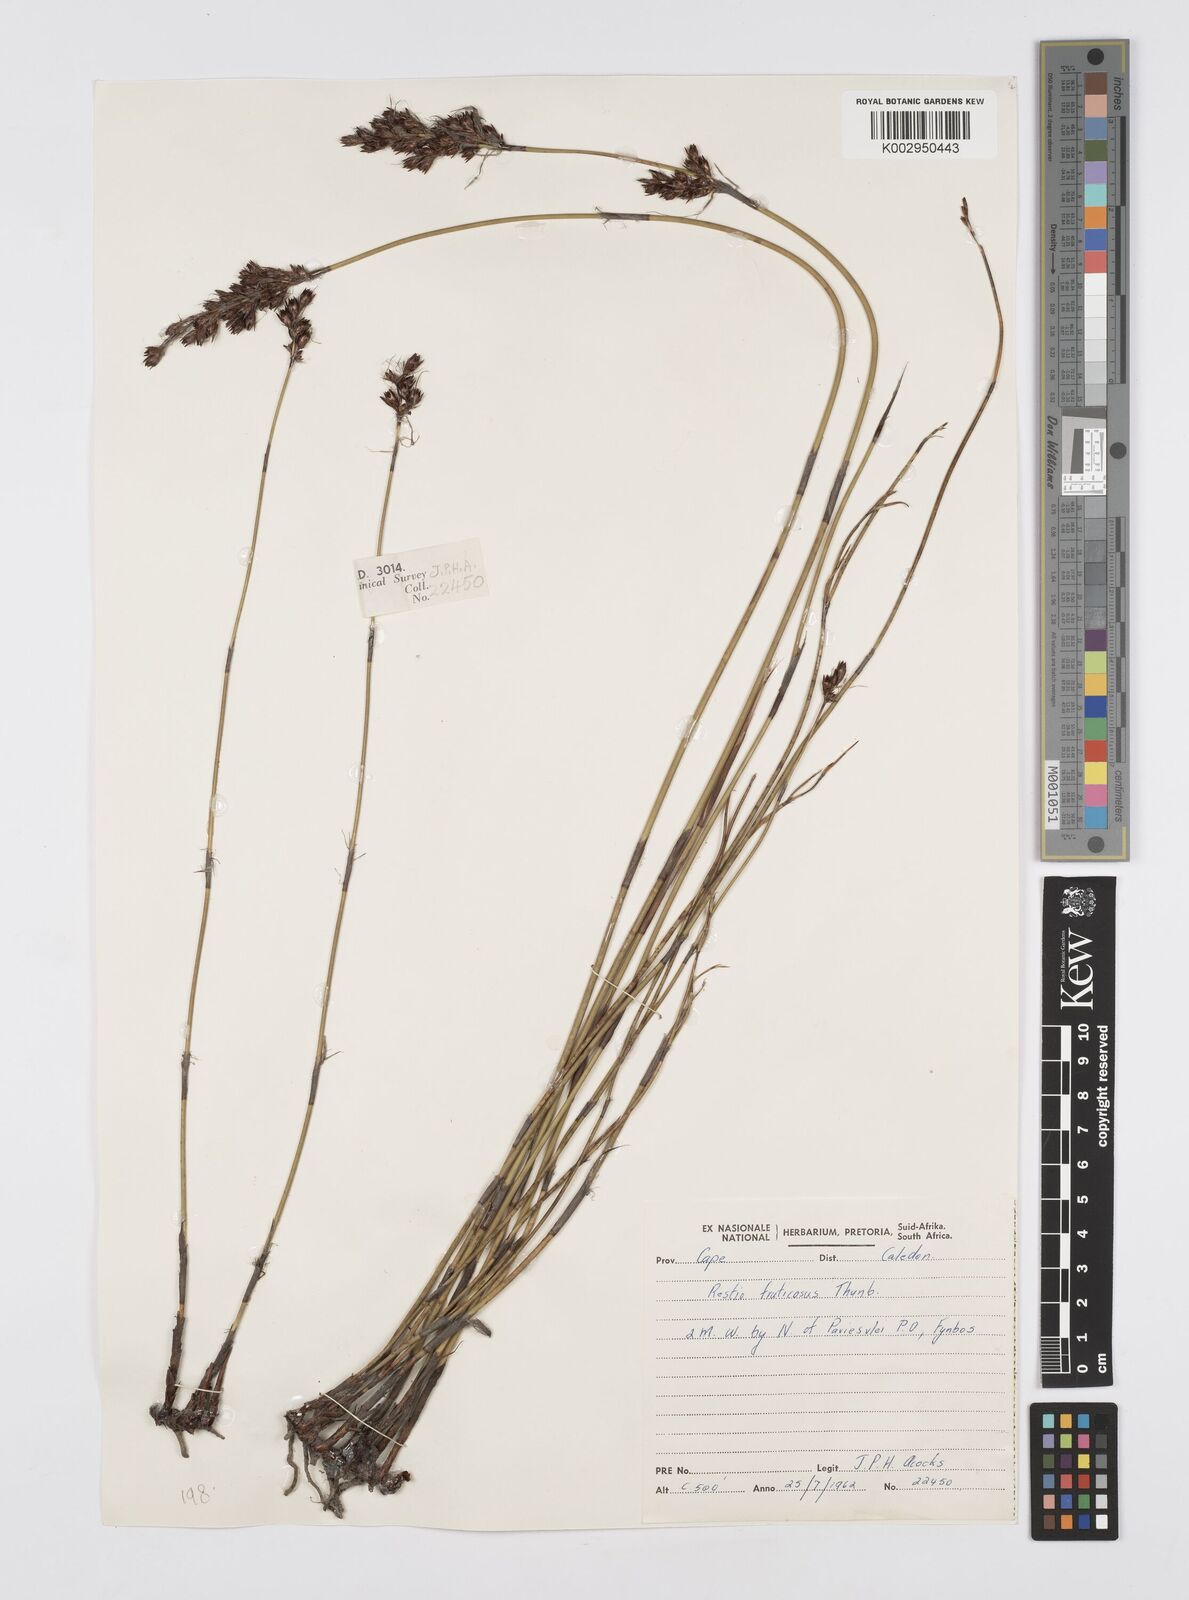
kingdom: Plantae
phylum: Tracheophyta
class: Liliopsida
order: Poales
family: Restionaceae
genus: Rhodocoma
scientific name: Rhodocoma fruticosa
